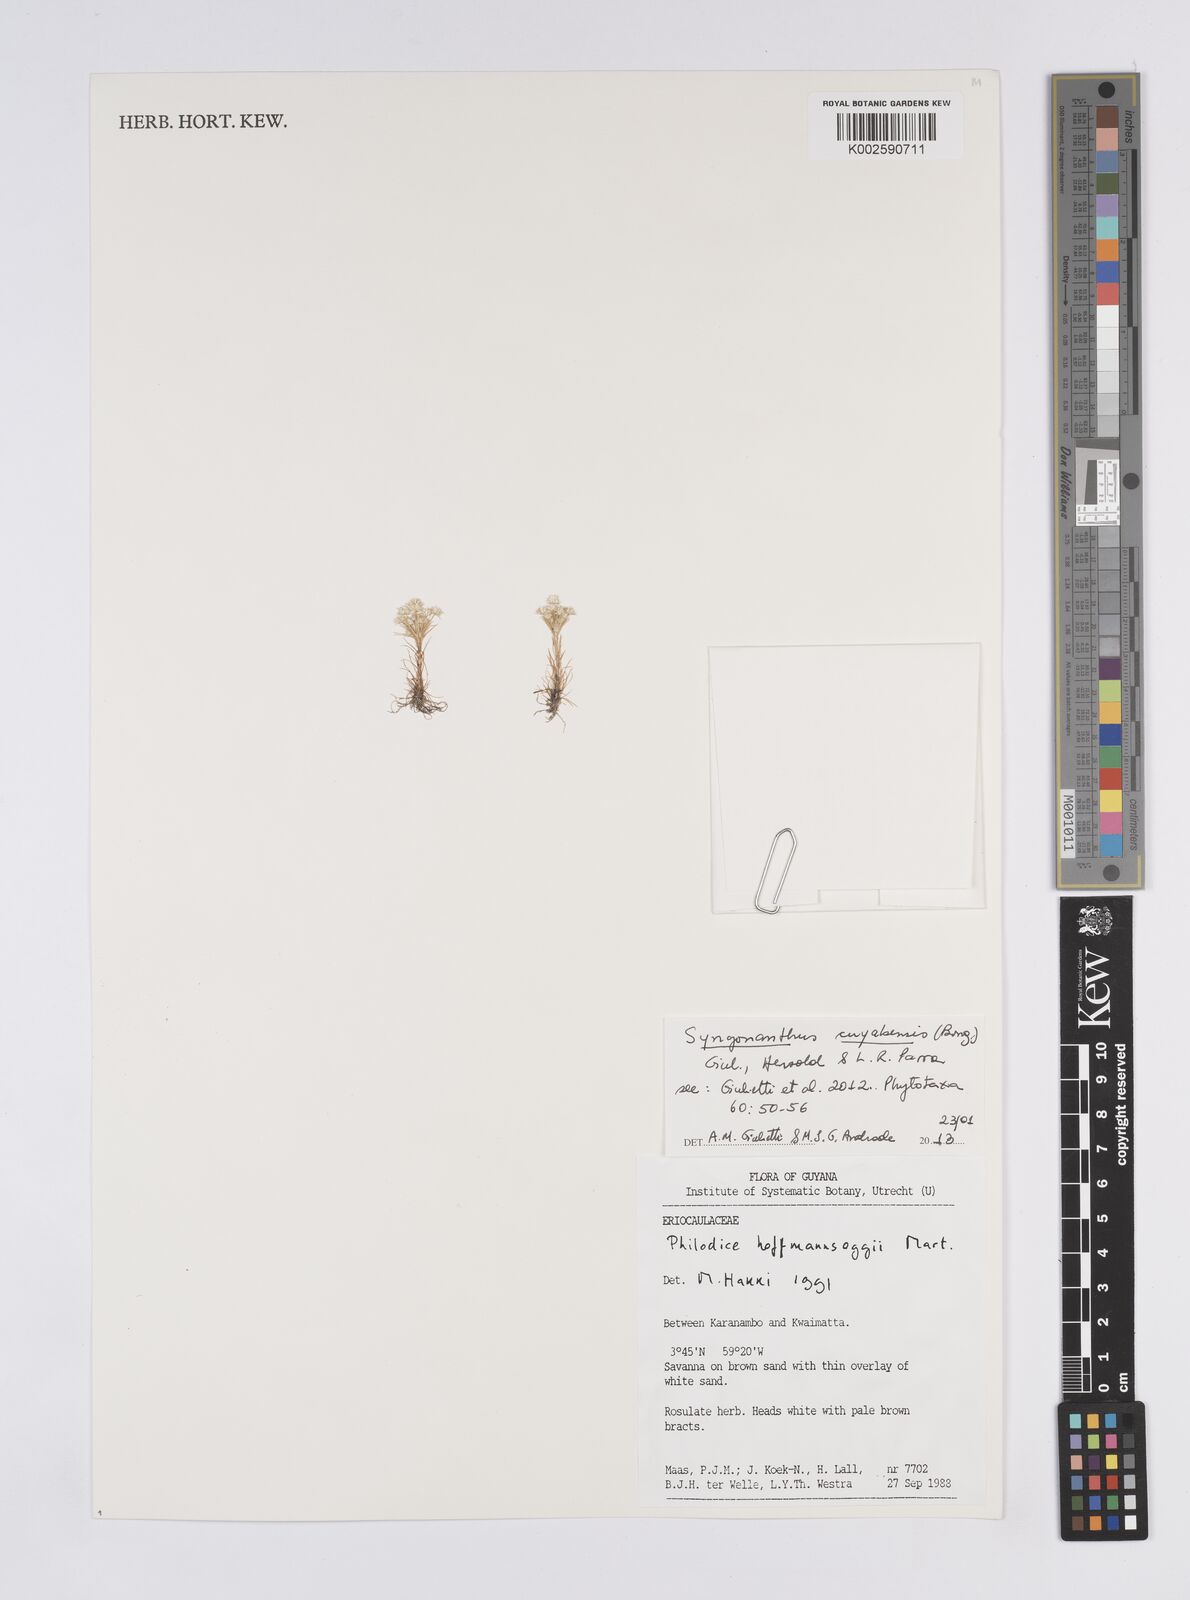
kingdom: Plantae
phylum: Tracheophyta
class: Liliopsida
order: Poales
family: Eriocaulaceae
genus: Syngonanthus
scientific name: Syngonanthus cuyabensis
